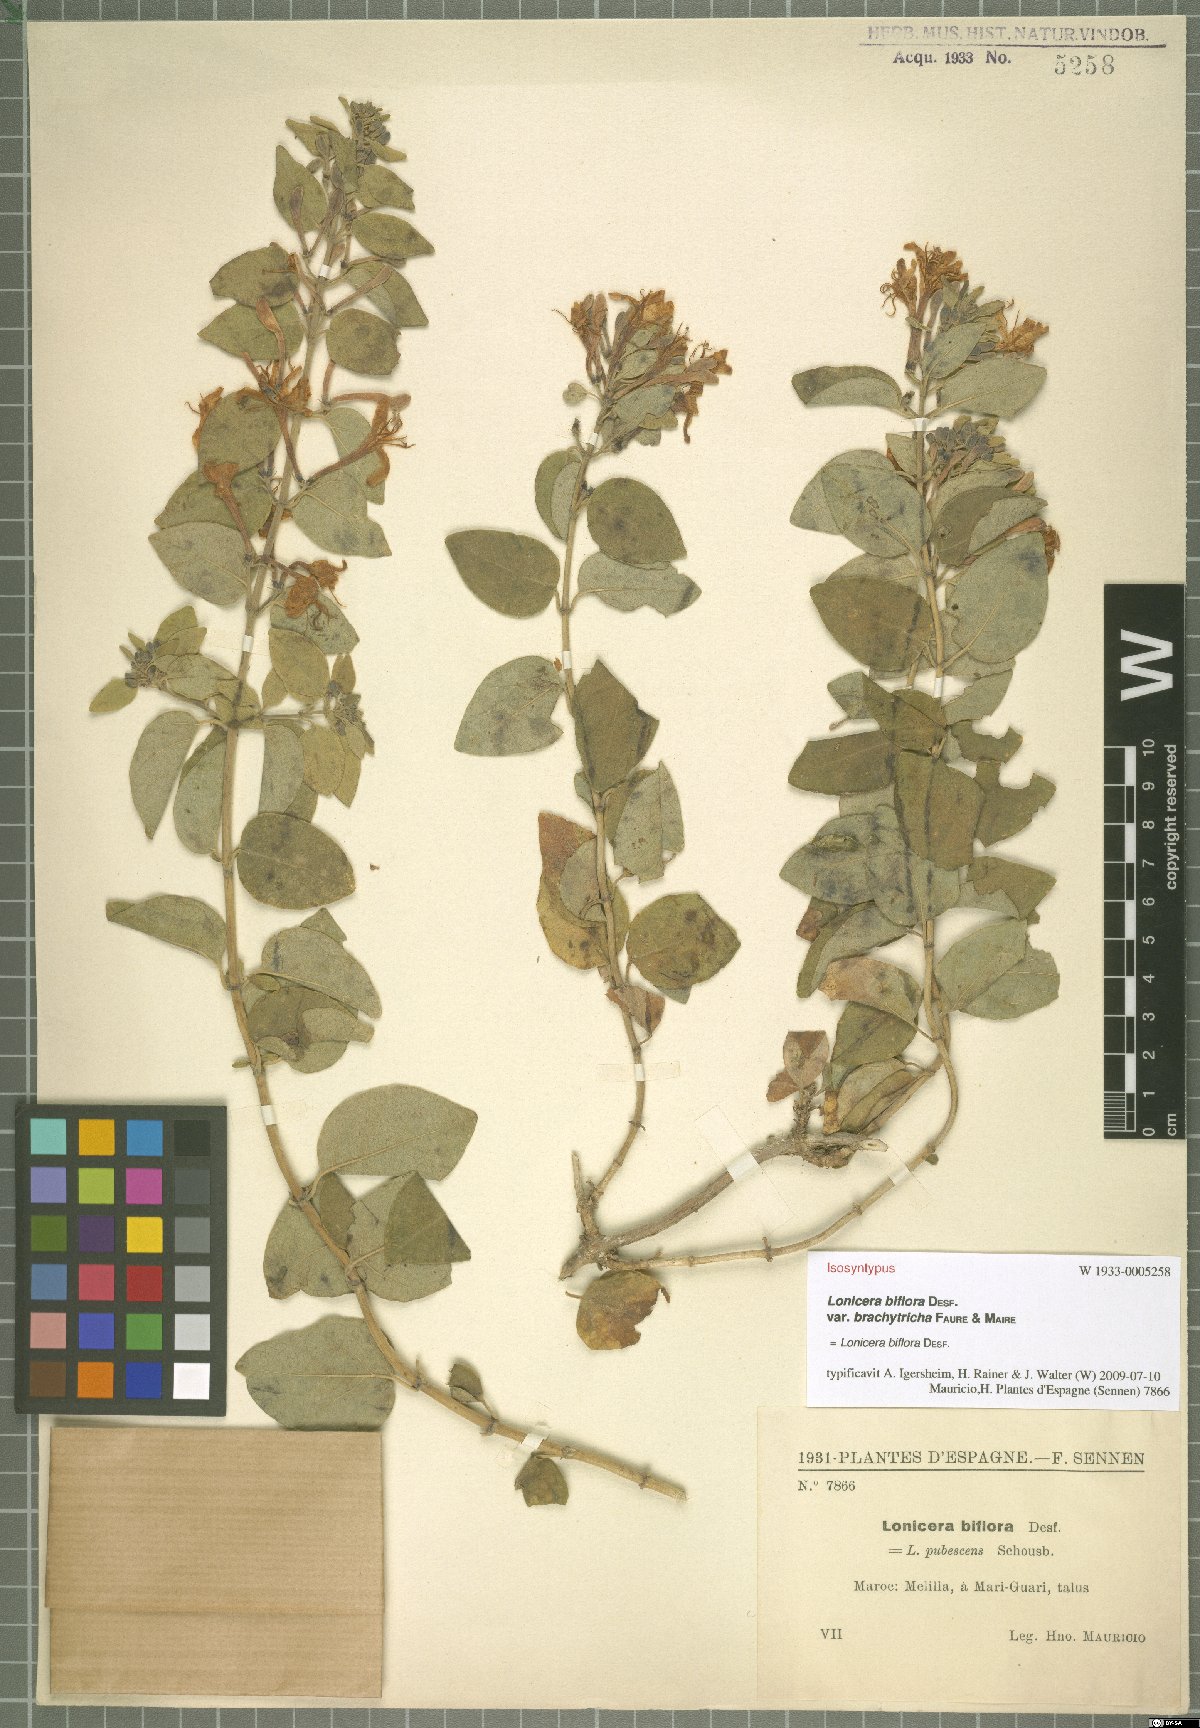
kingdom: Plantae
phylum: Tracheophyta
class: Magnoliopsida
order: Dipsacales
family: Caprifoliaceae
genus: Lonicera
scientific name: Lonicera biflora
